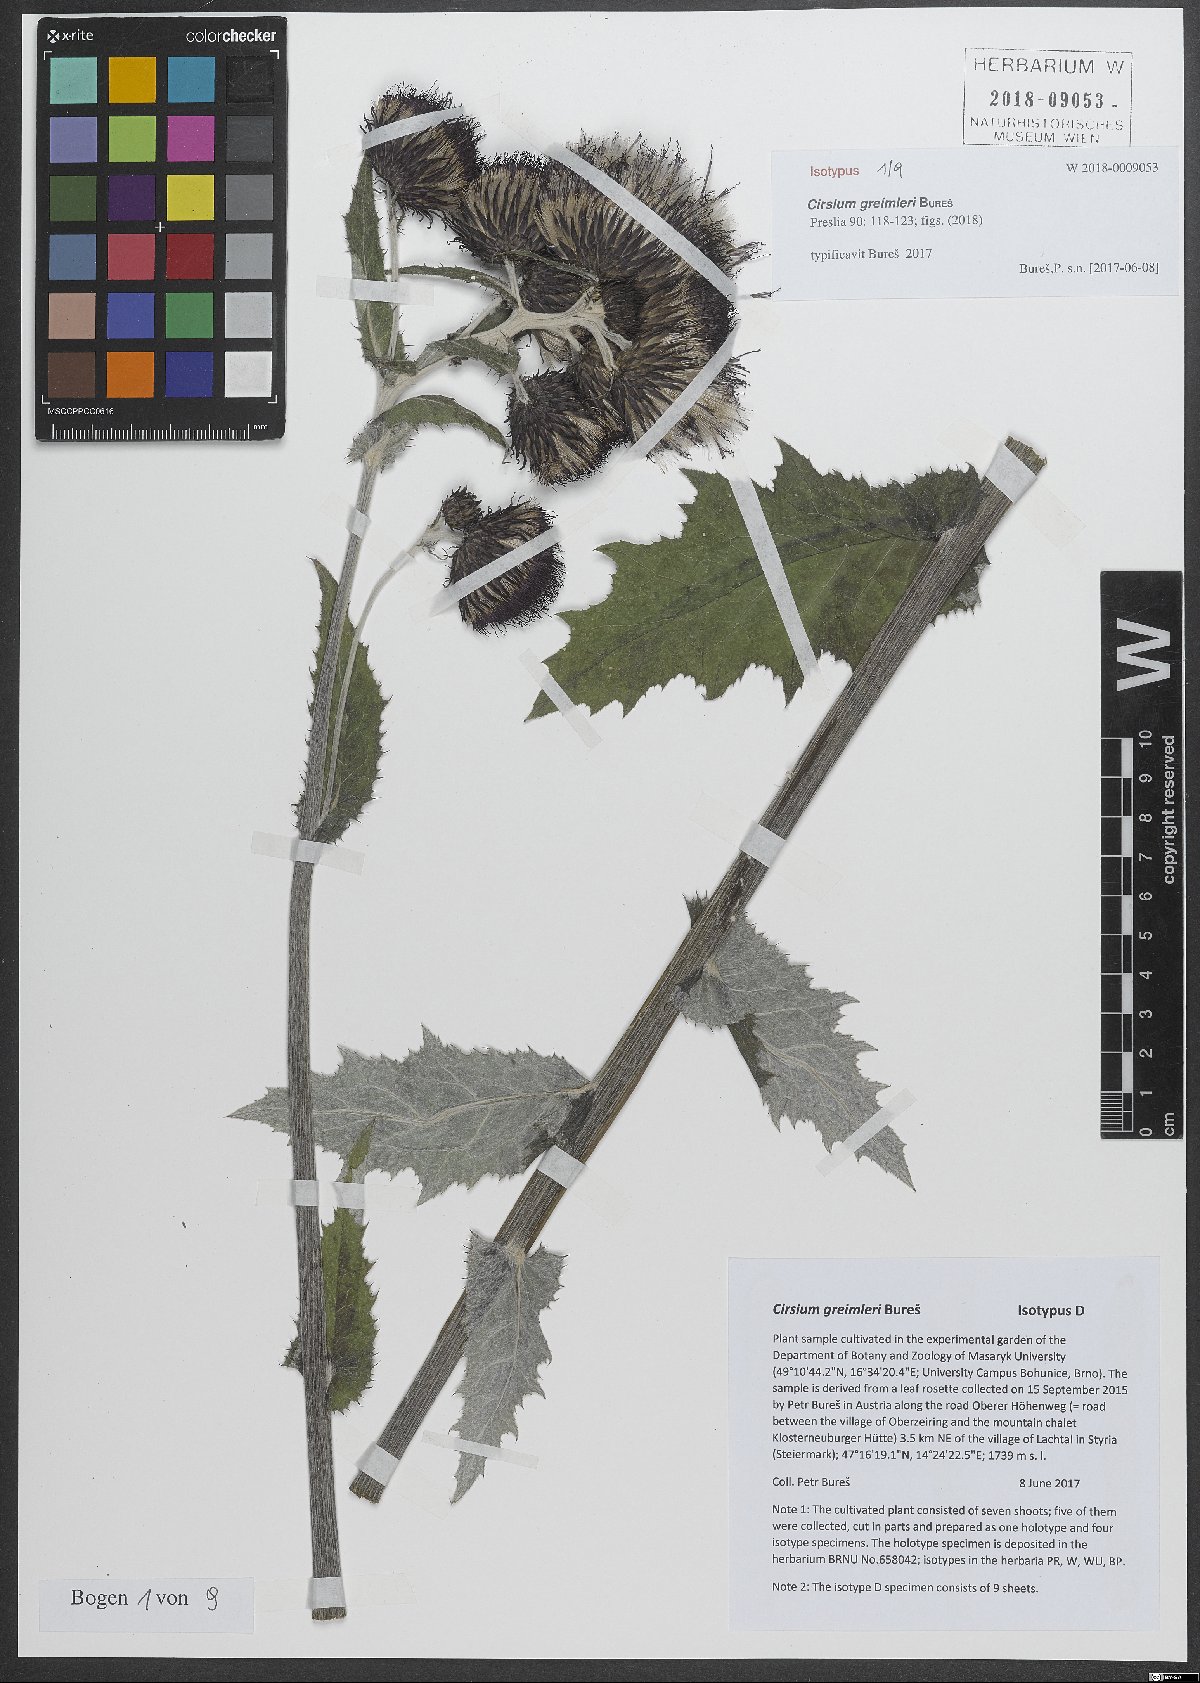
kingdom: Plantae
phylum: Tracheophyta
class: Magnoliopsida
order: Asterales
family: Asteraceae
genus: Cirsium
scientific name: Cirsium greimleri
